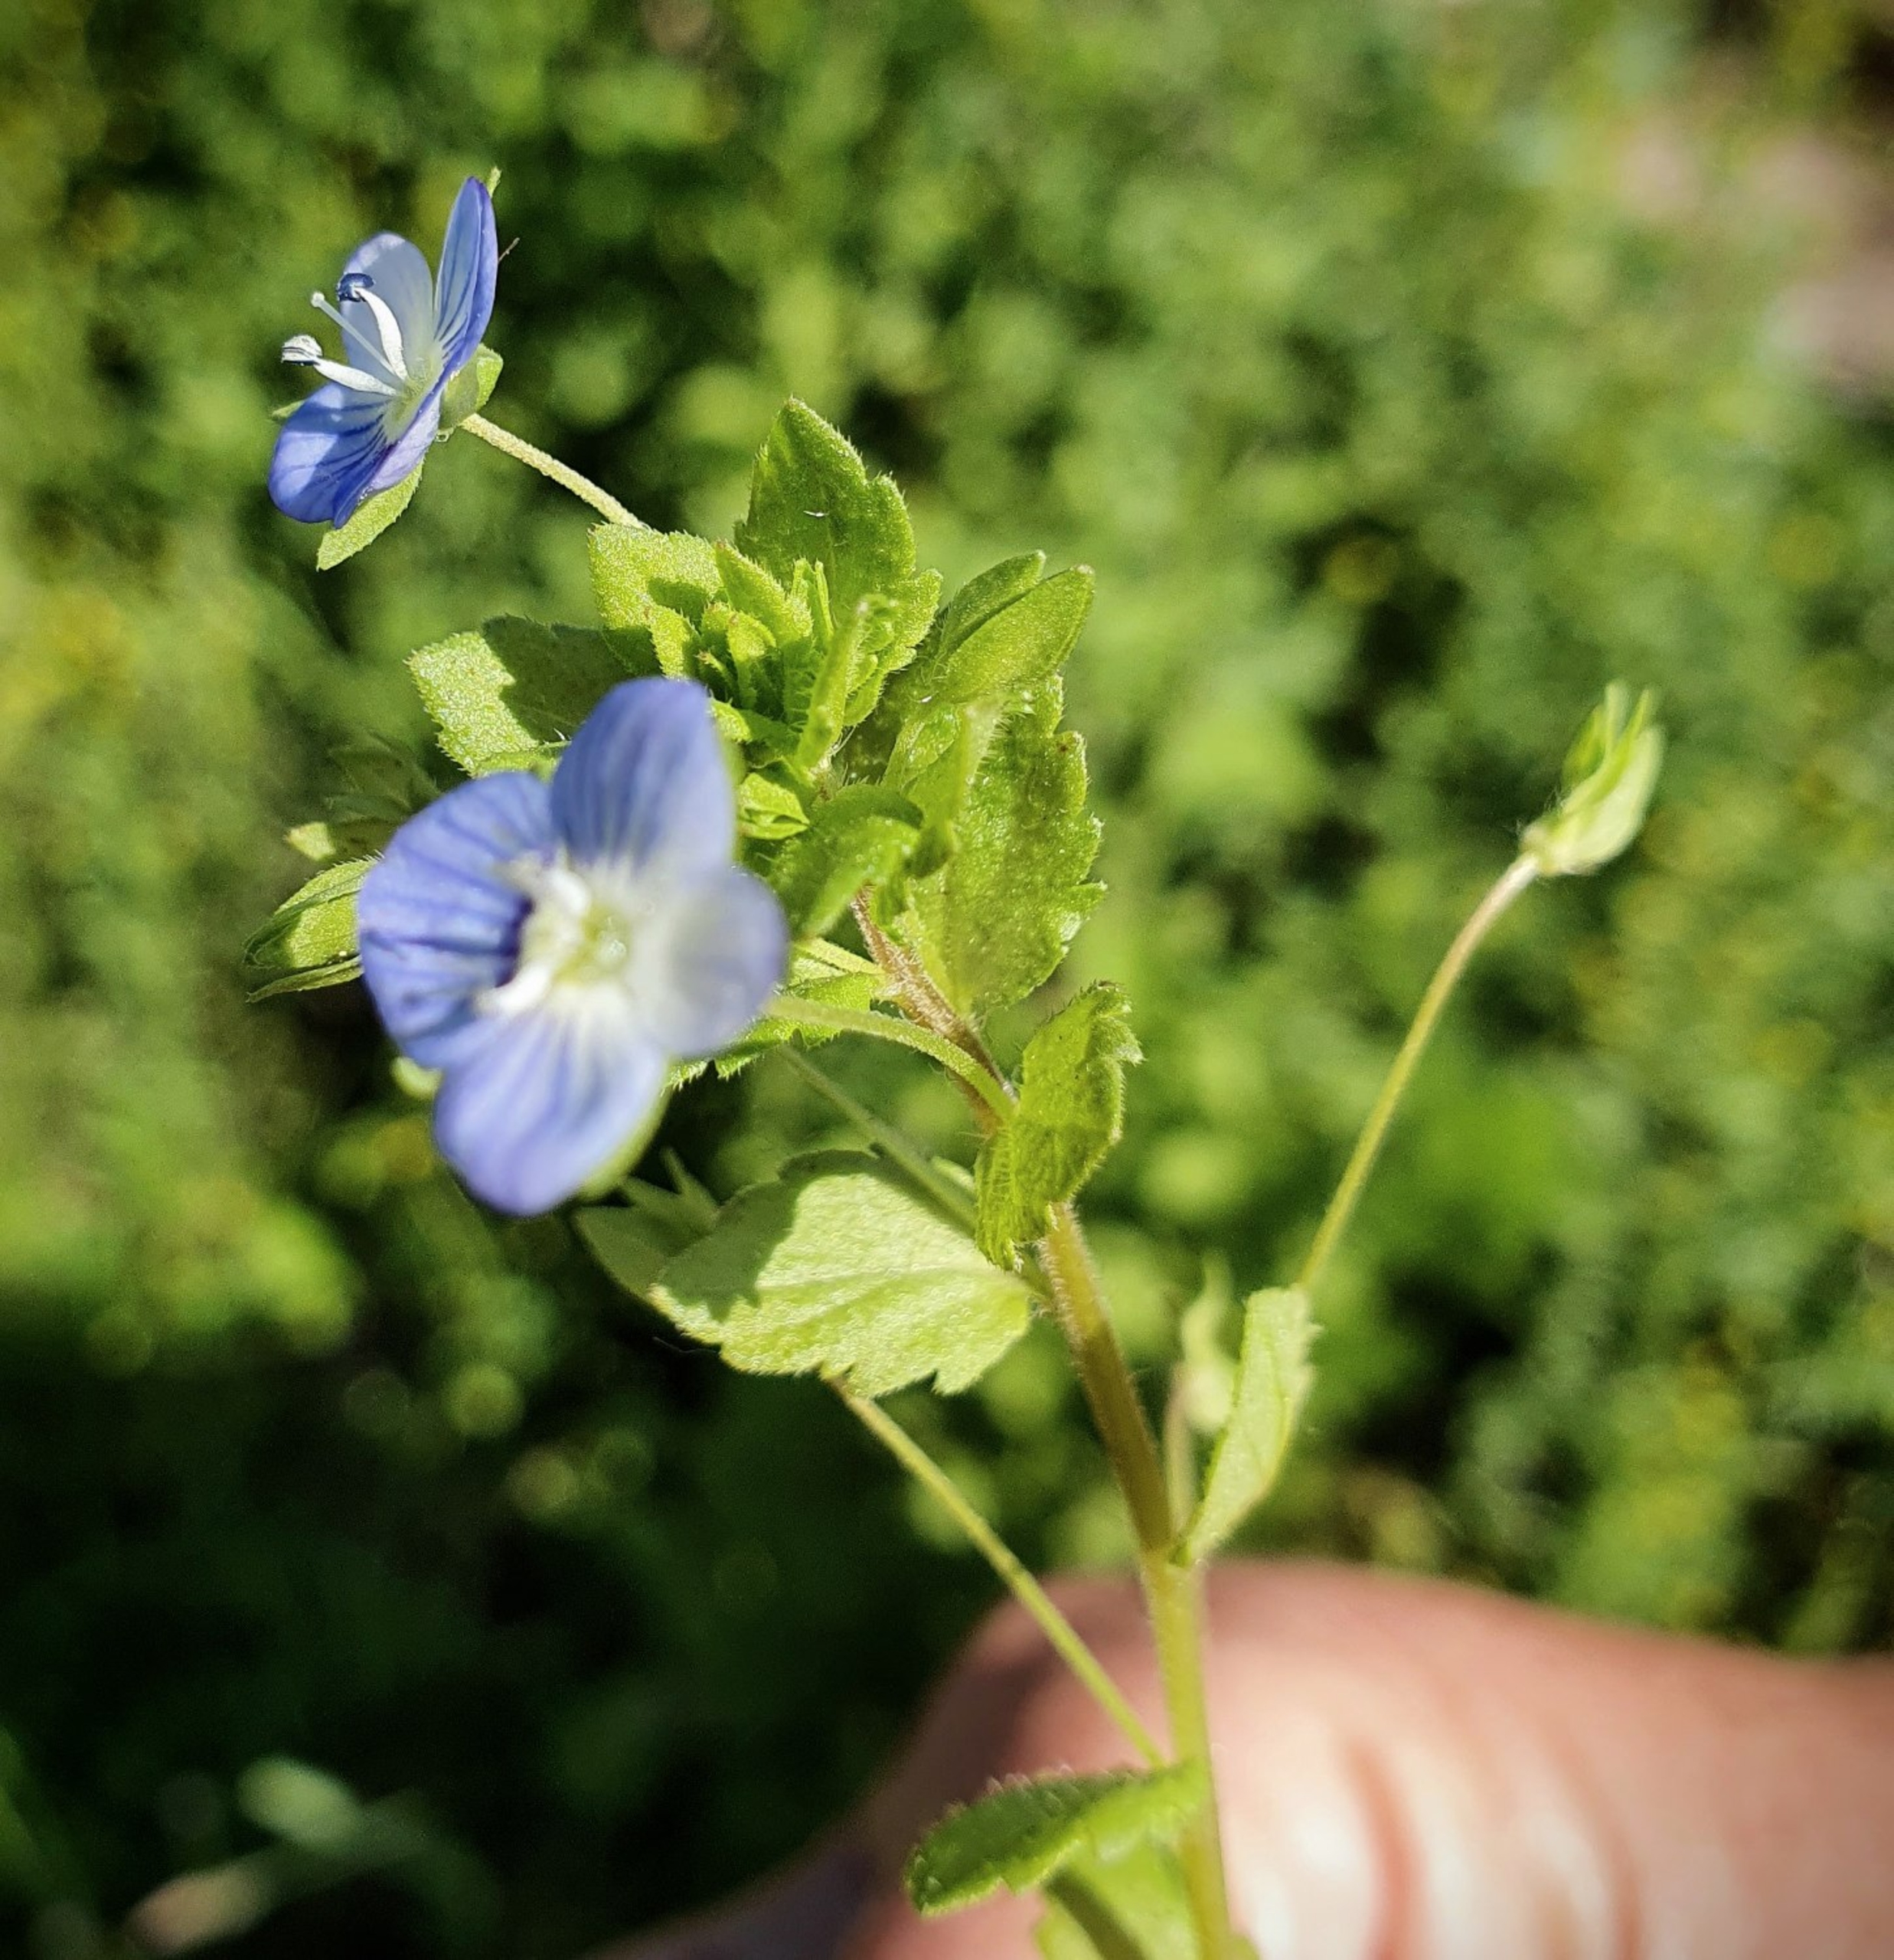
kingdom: Plantae
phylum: Tracheophyta
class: Magnoliopsida
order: Lamiales
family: Plantaginaceae
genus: Veronica
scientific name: Veronica persica
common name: Storkronet ærenpris
